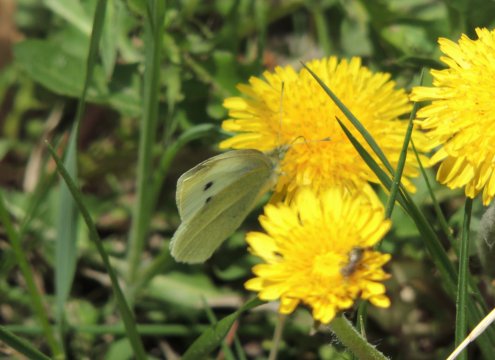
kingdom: Animalia
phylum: Arthropoda
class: Insecta
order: Lepidoptera
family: Pieridae
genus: Pieris
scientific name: Pieris rapae
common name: Cabbage White
